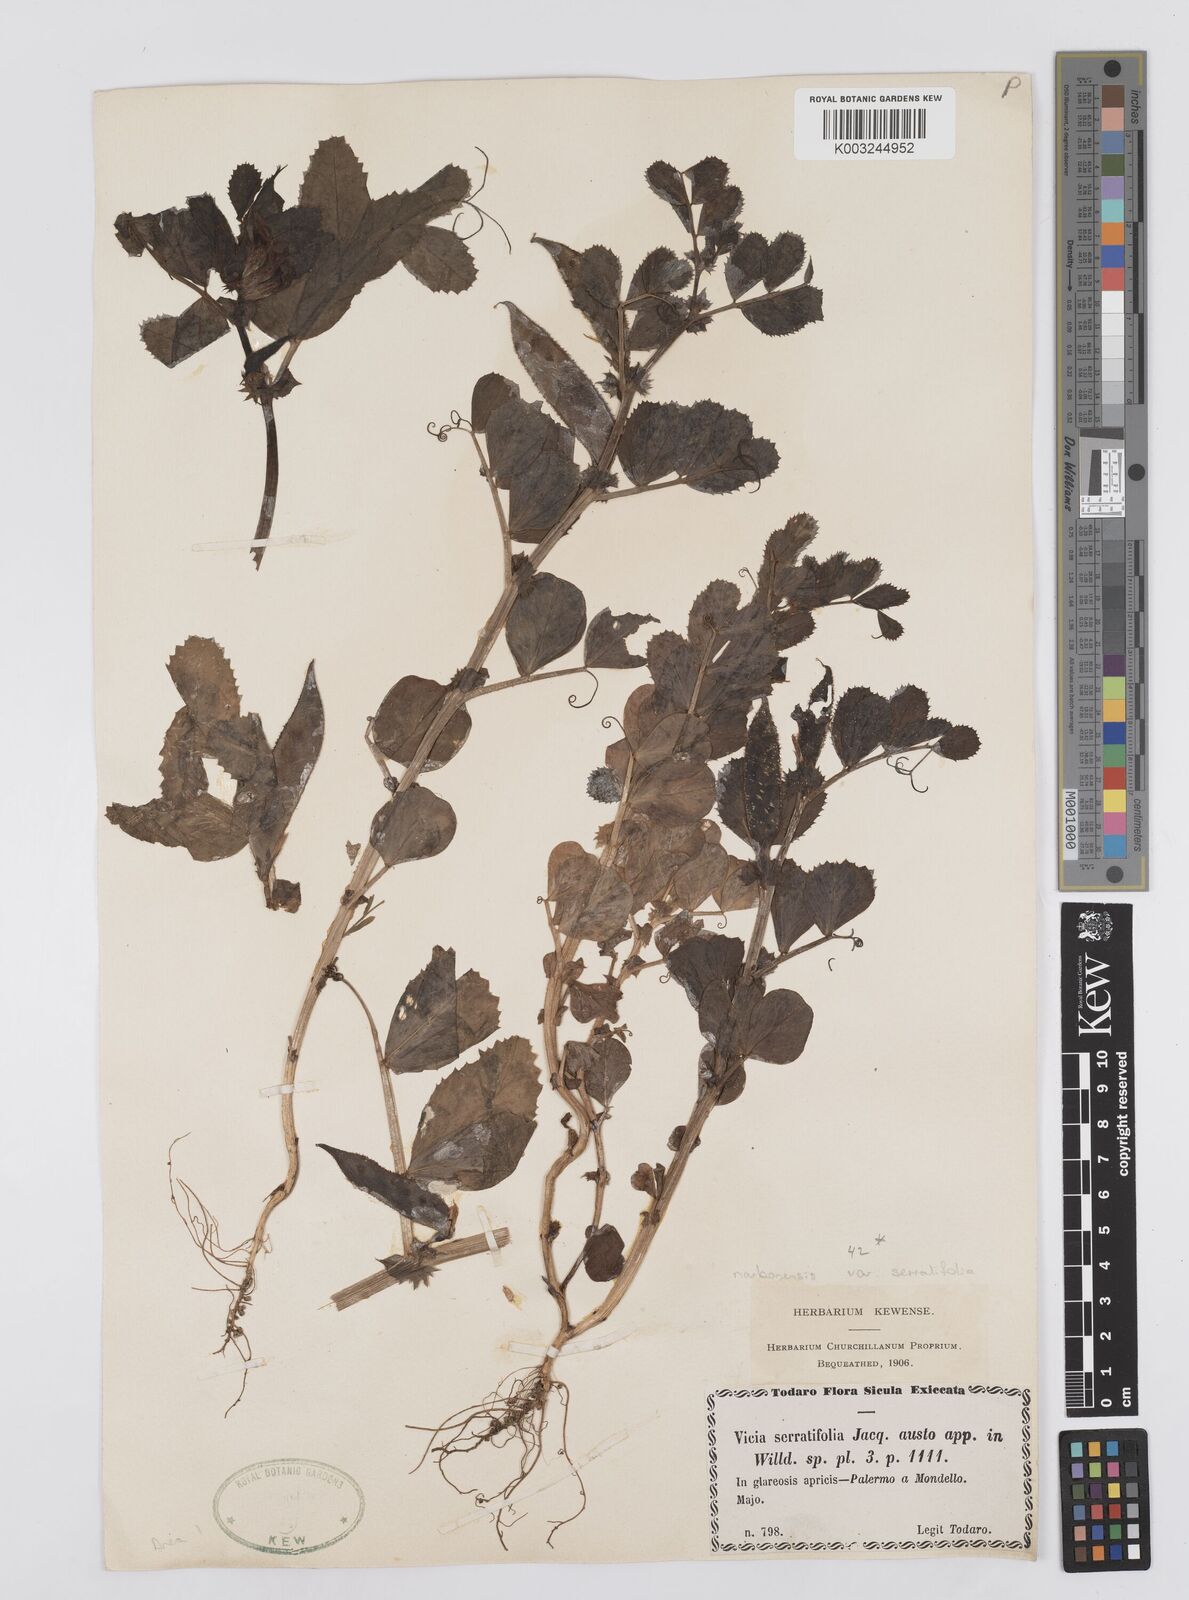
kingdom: Plantae
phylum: Tracheophyta
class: Magnoliopsida
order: Fabales
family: Fabaceae
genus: Vicia
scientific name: Vicia serratifolia
